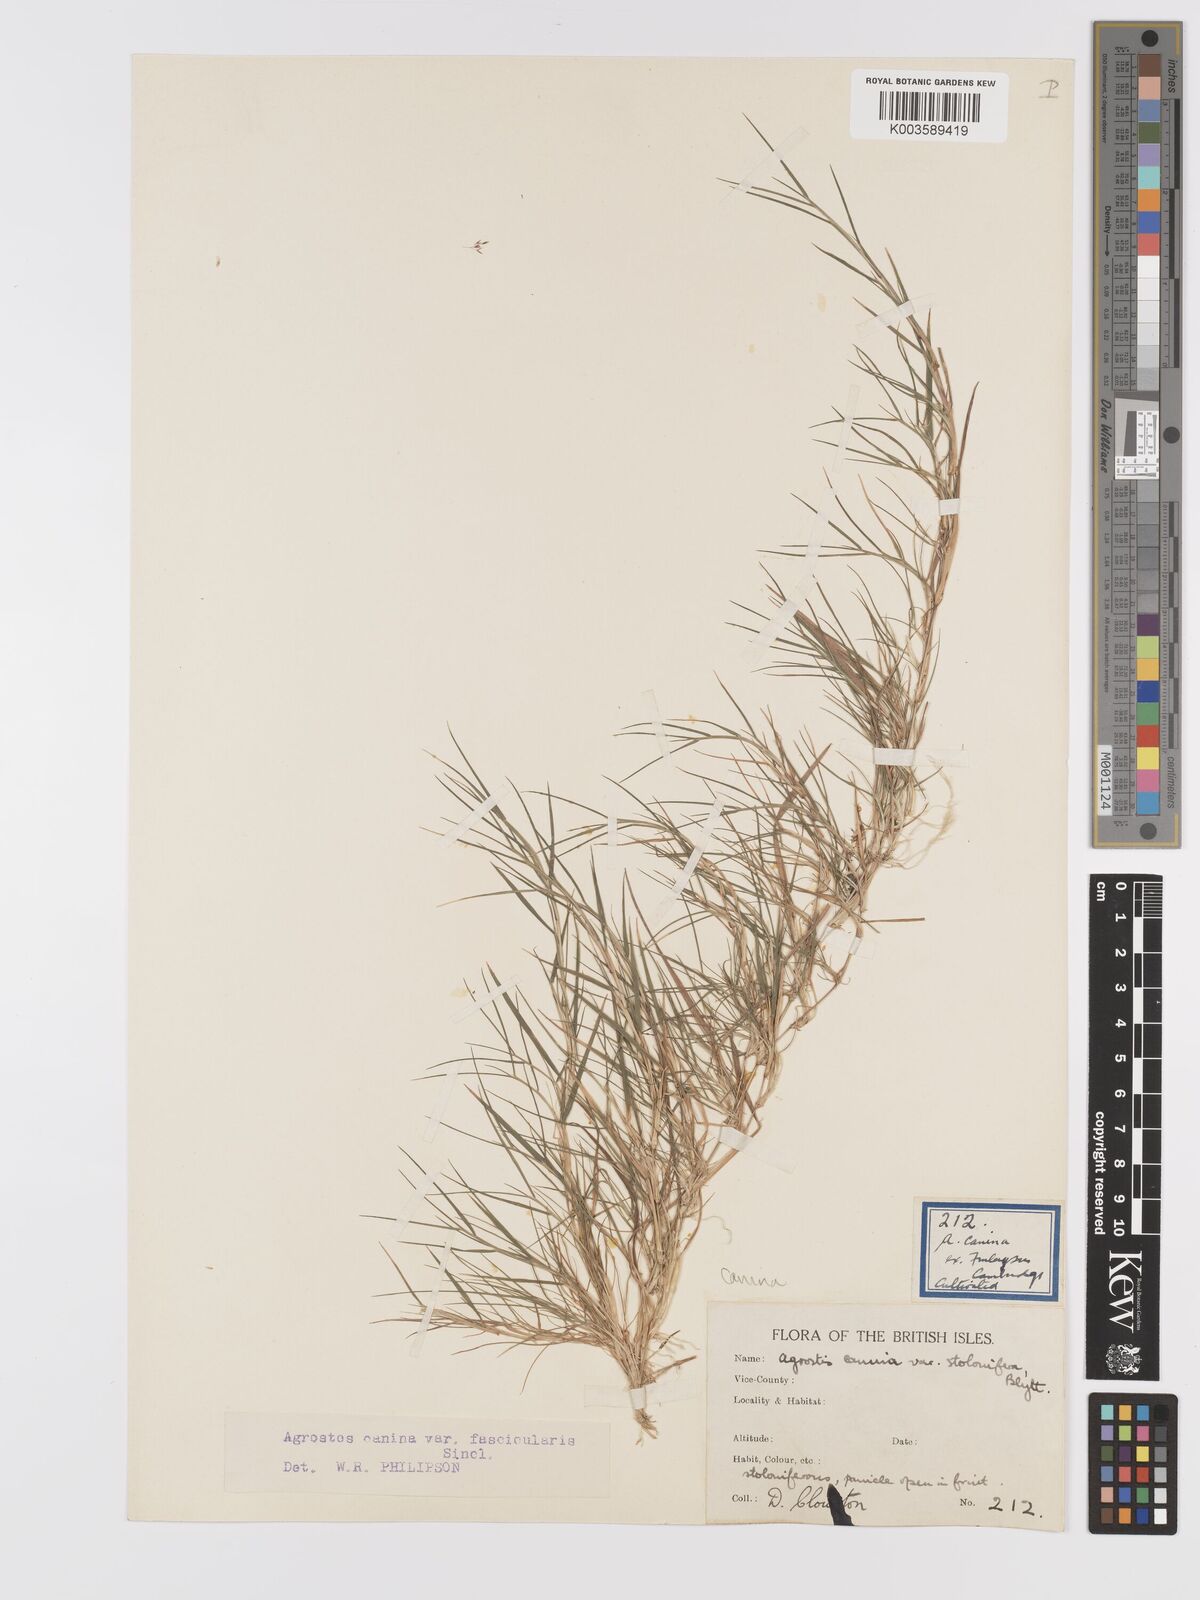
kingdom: Plantae
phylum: Tracheophyta
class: Liliopsida
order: Poales
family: Poaceae
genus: Agrostis
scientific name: Agrostis canina
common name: Velvet bent
